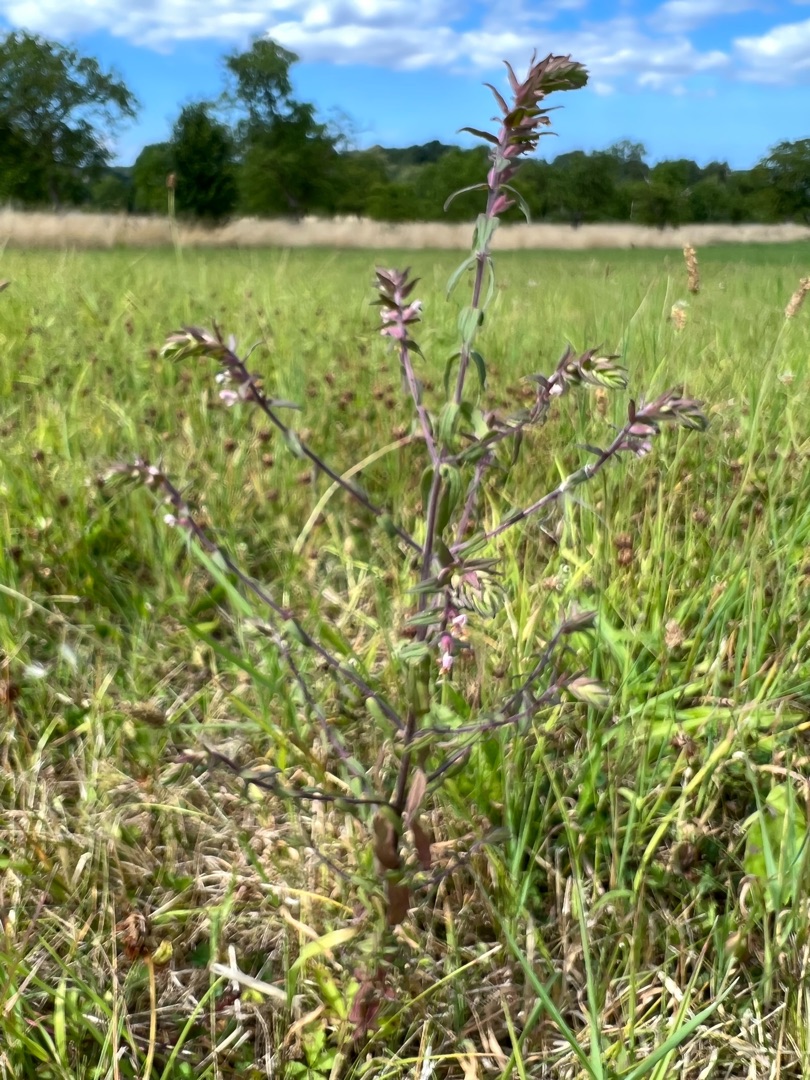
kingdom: Plantae
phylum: Tracheophyta
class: Magnoliopsida
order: Lamiales
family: Orobanchaceae
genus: Odontites
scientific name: Odontites vulgaris
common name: Høst-rødtop
